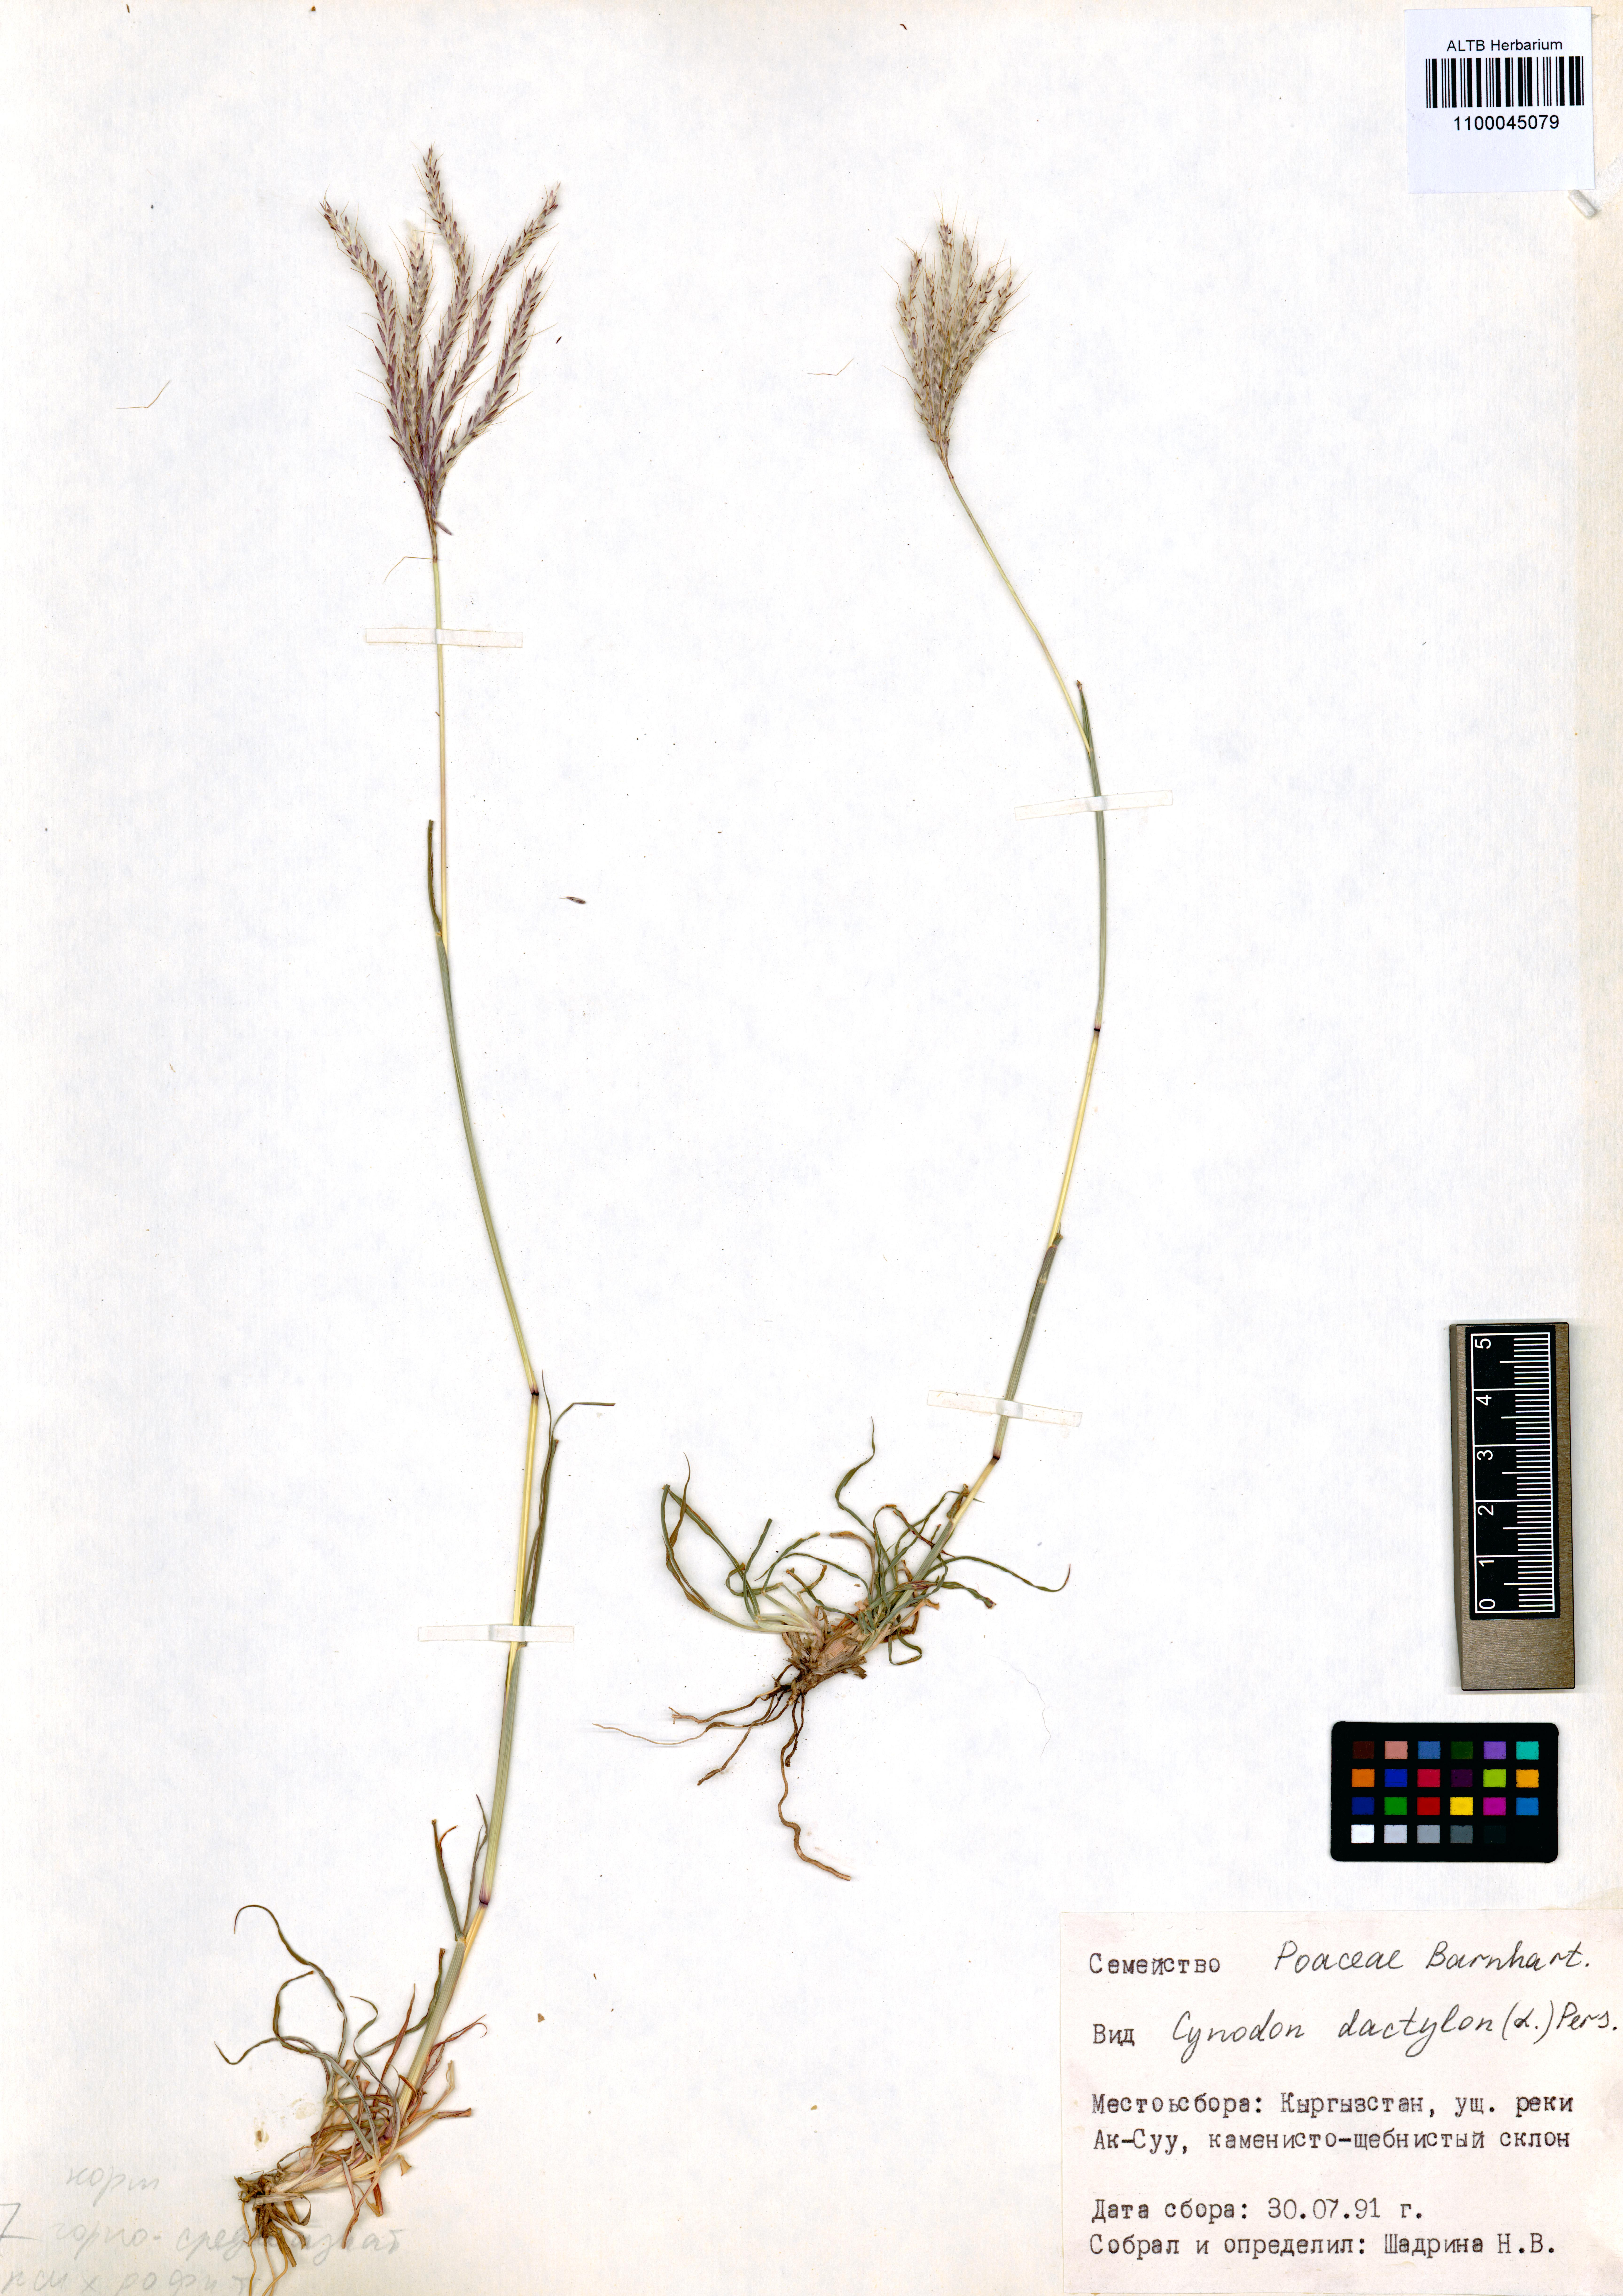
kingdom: Plantae
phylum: Tracheophyta
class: Liliopsida
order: Poales
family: Poaceae
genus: Cynodon
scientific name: Cynodon dactylon
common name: Bermuda grass
